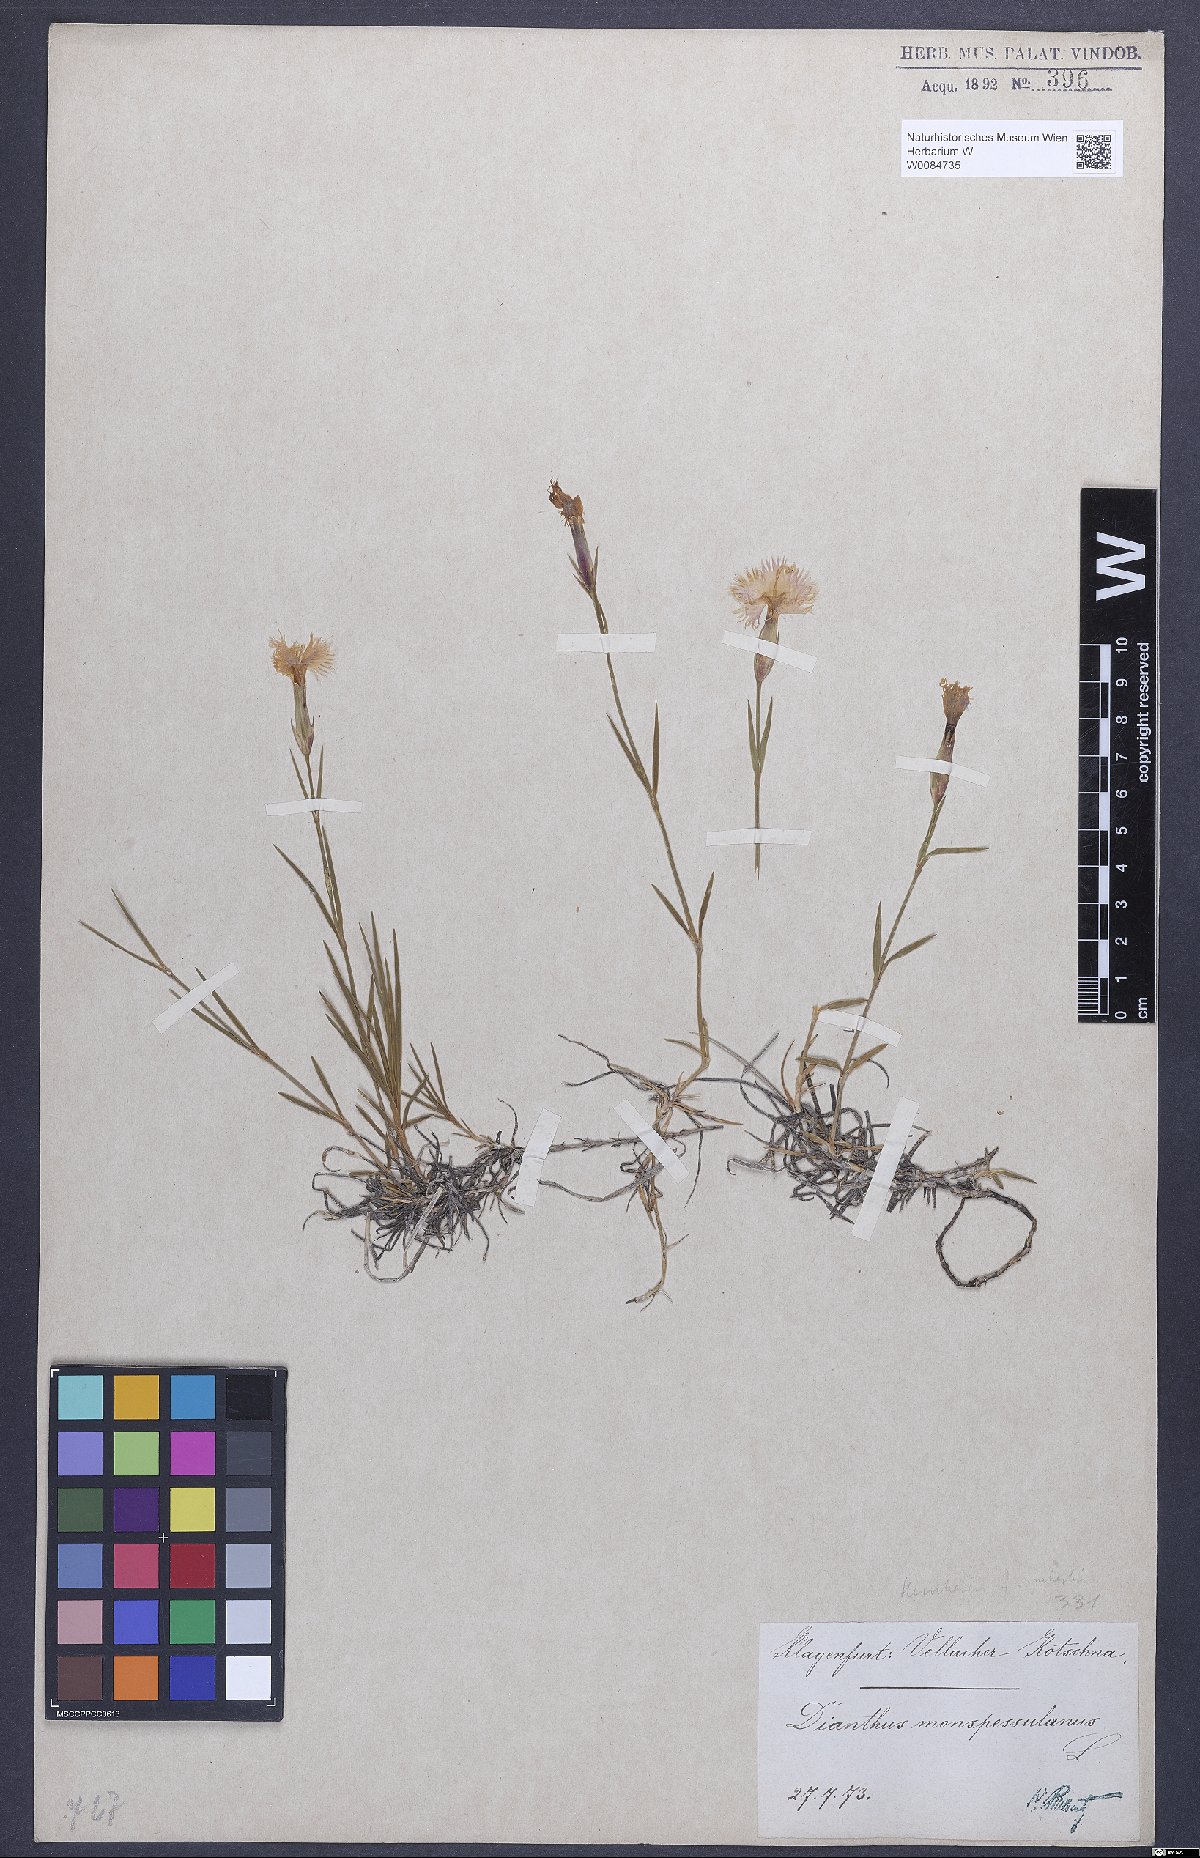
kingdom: Plantae
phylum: Tracheophyta
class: Magnoliopsida
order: Caryophyllales
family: Caryophyllaceae
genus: Dianthus
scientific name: Dianthus hyssopifolius
